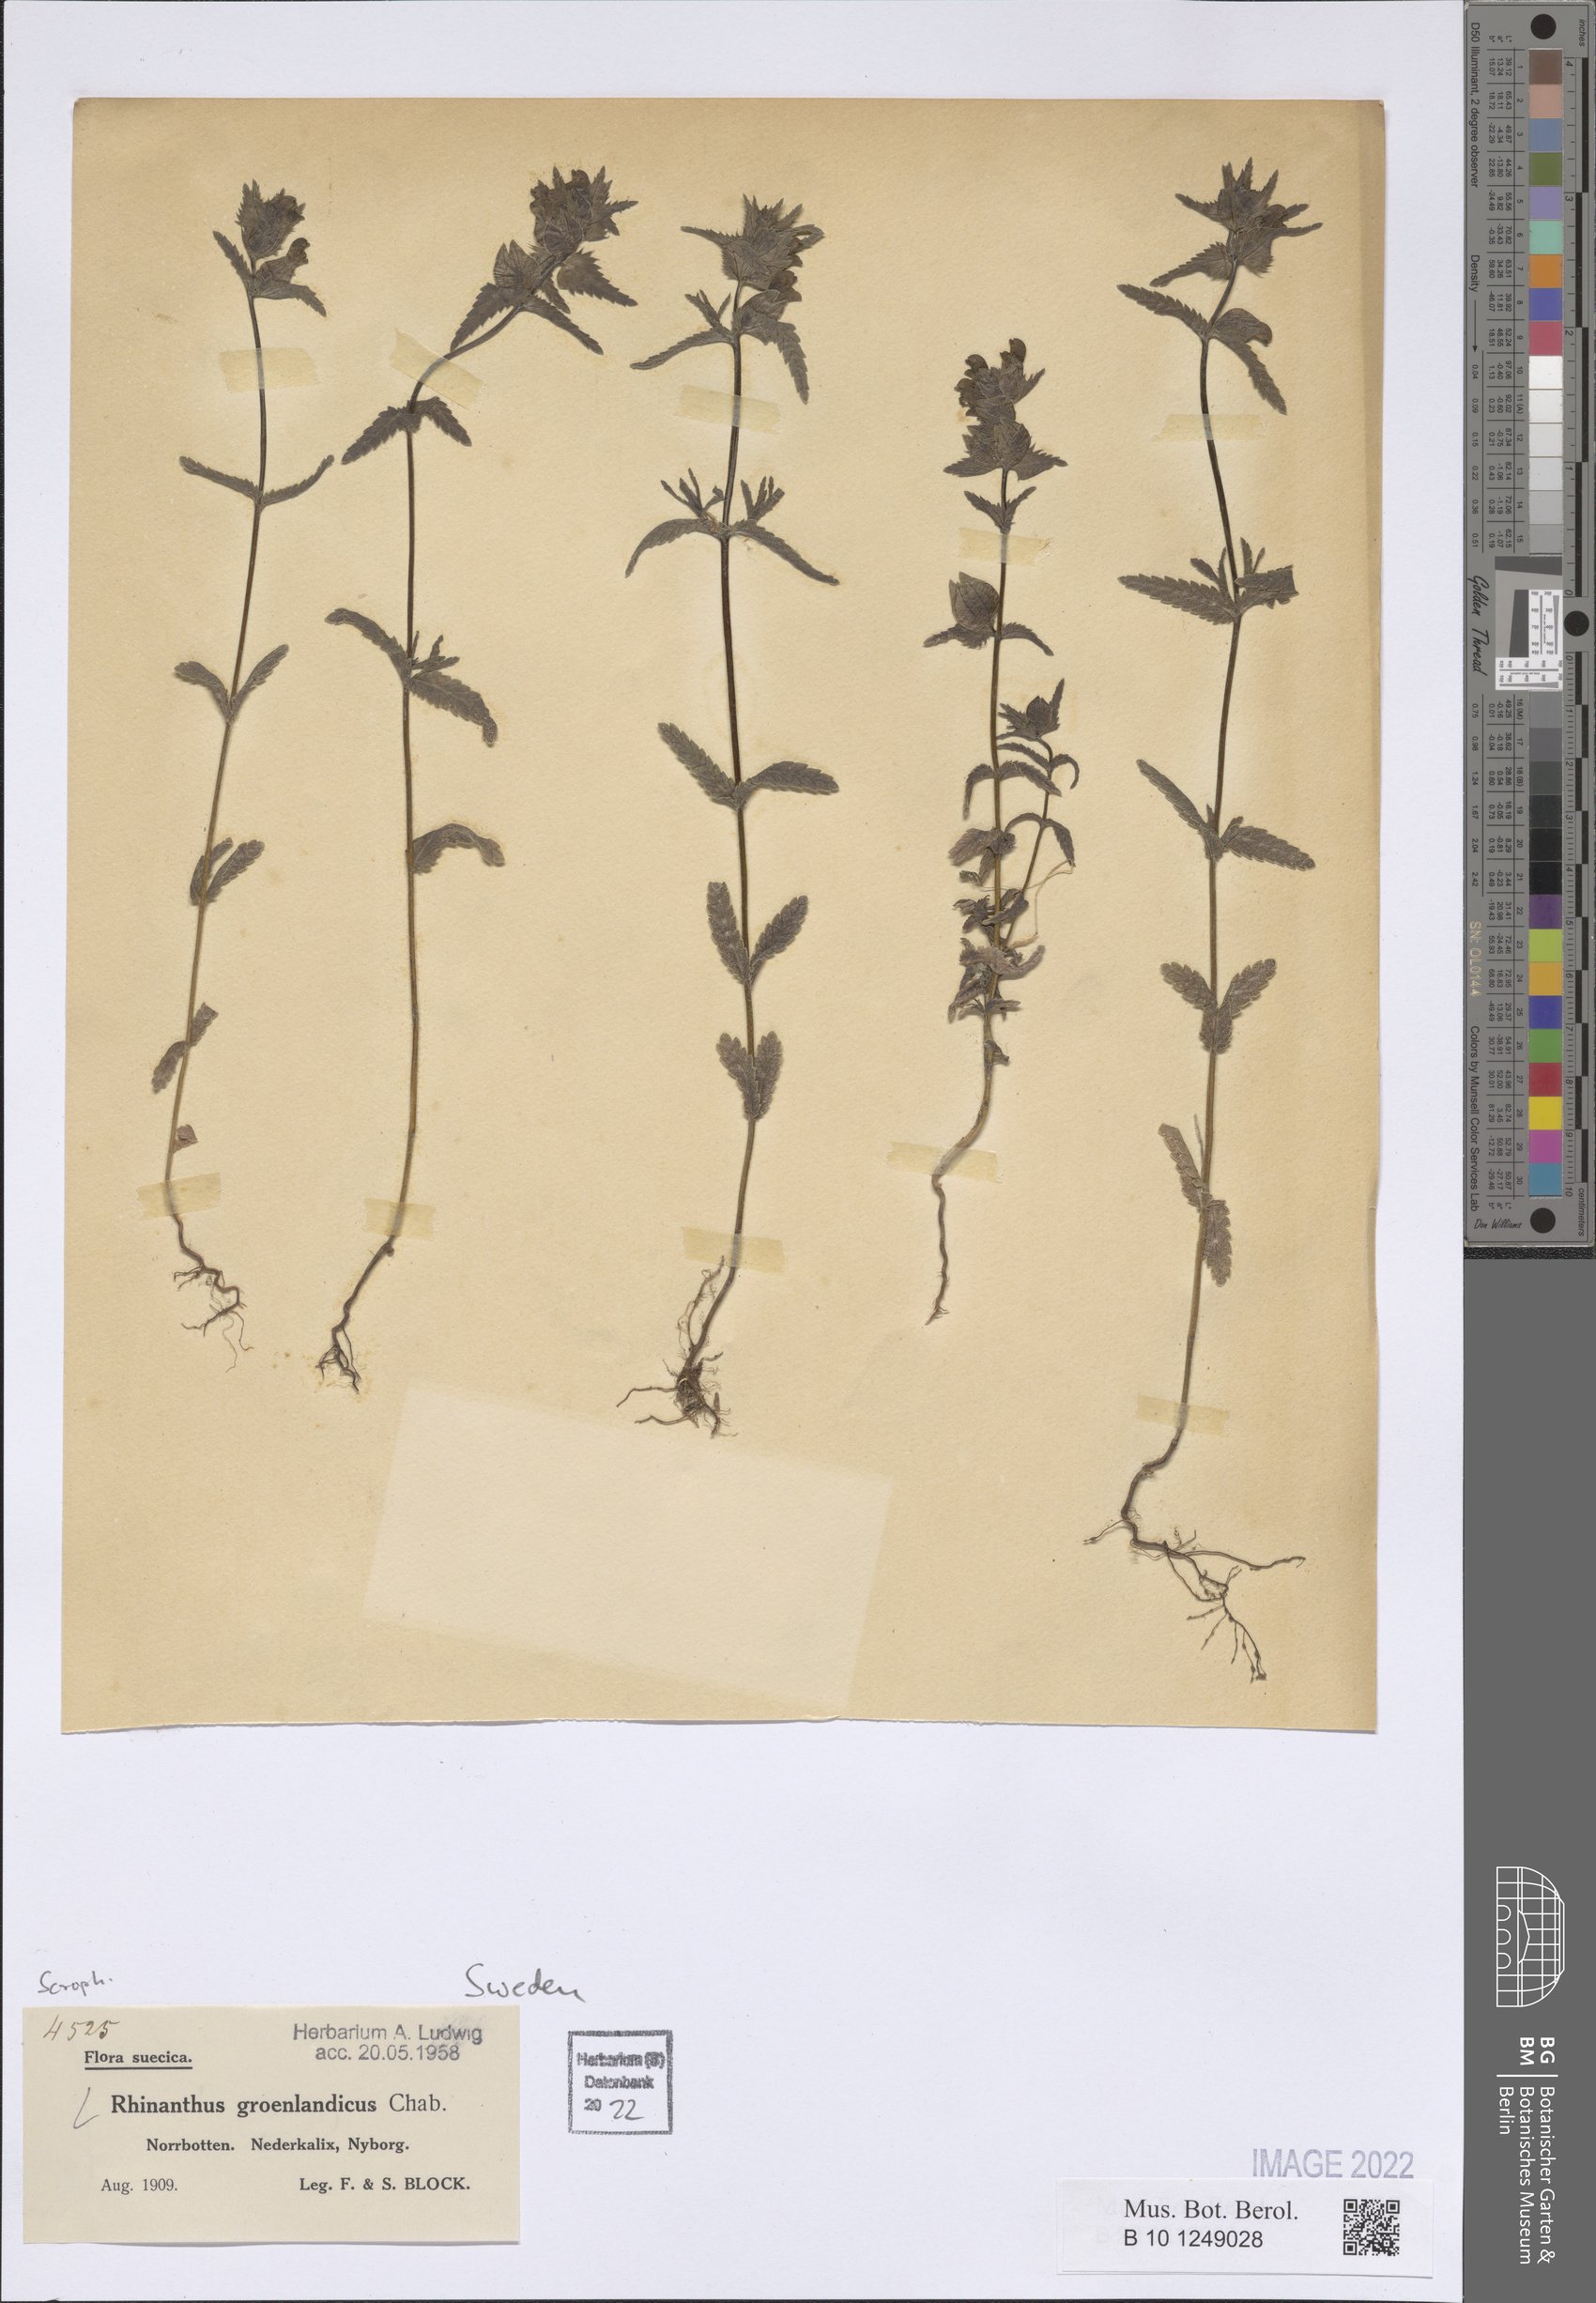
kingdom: Plantae
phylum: Tracheophyta
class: Magnoliopsida
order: Lamiales
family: Orobanchaceae
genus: Rhinanthus
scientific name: Rhinanthus groenlandicus
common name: Little yellow rattle
